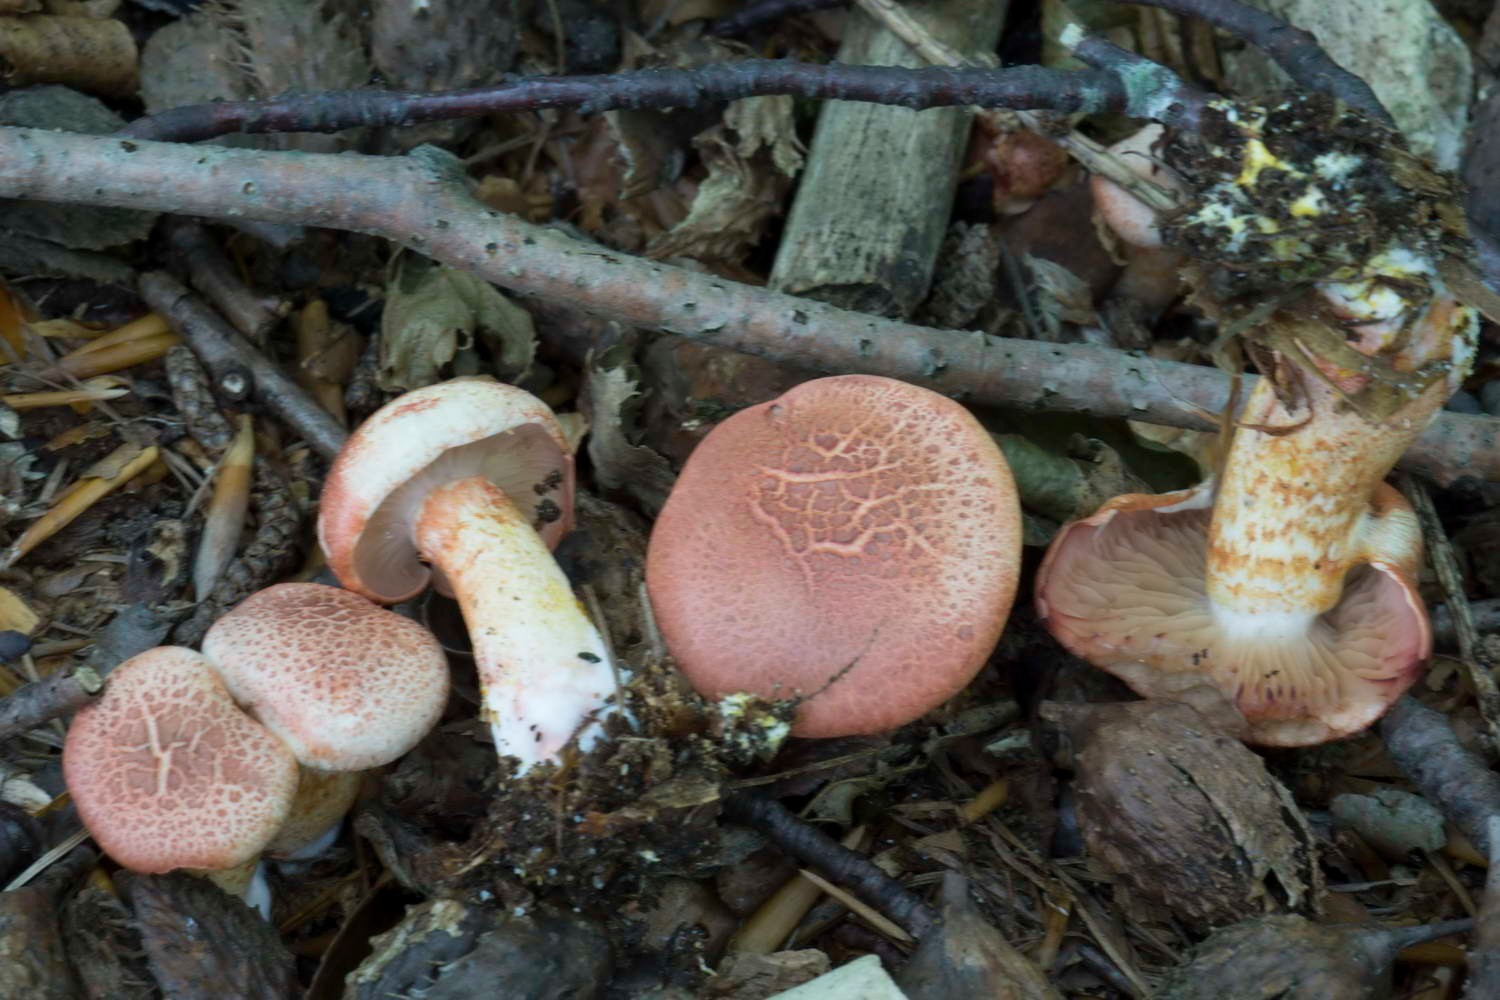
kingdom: Fungi
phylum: Basidiomycota
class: Agaricomycetes
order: Agaricales
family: Cortinariaceae
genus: Cortinarius
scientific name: Cortinarius bolaris
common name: cinnoberskællet slørhat
